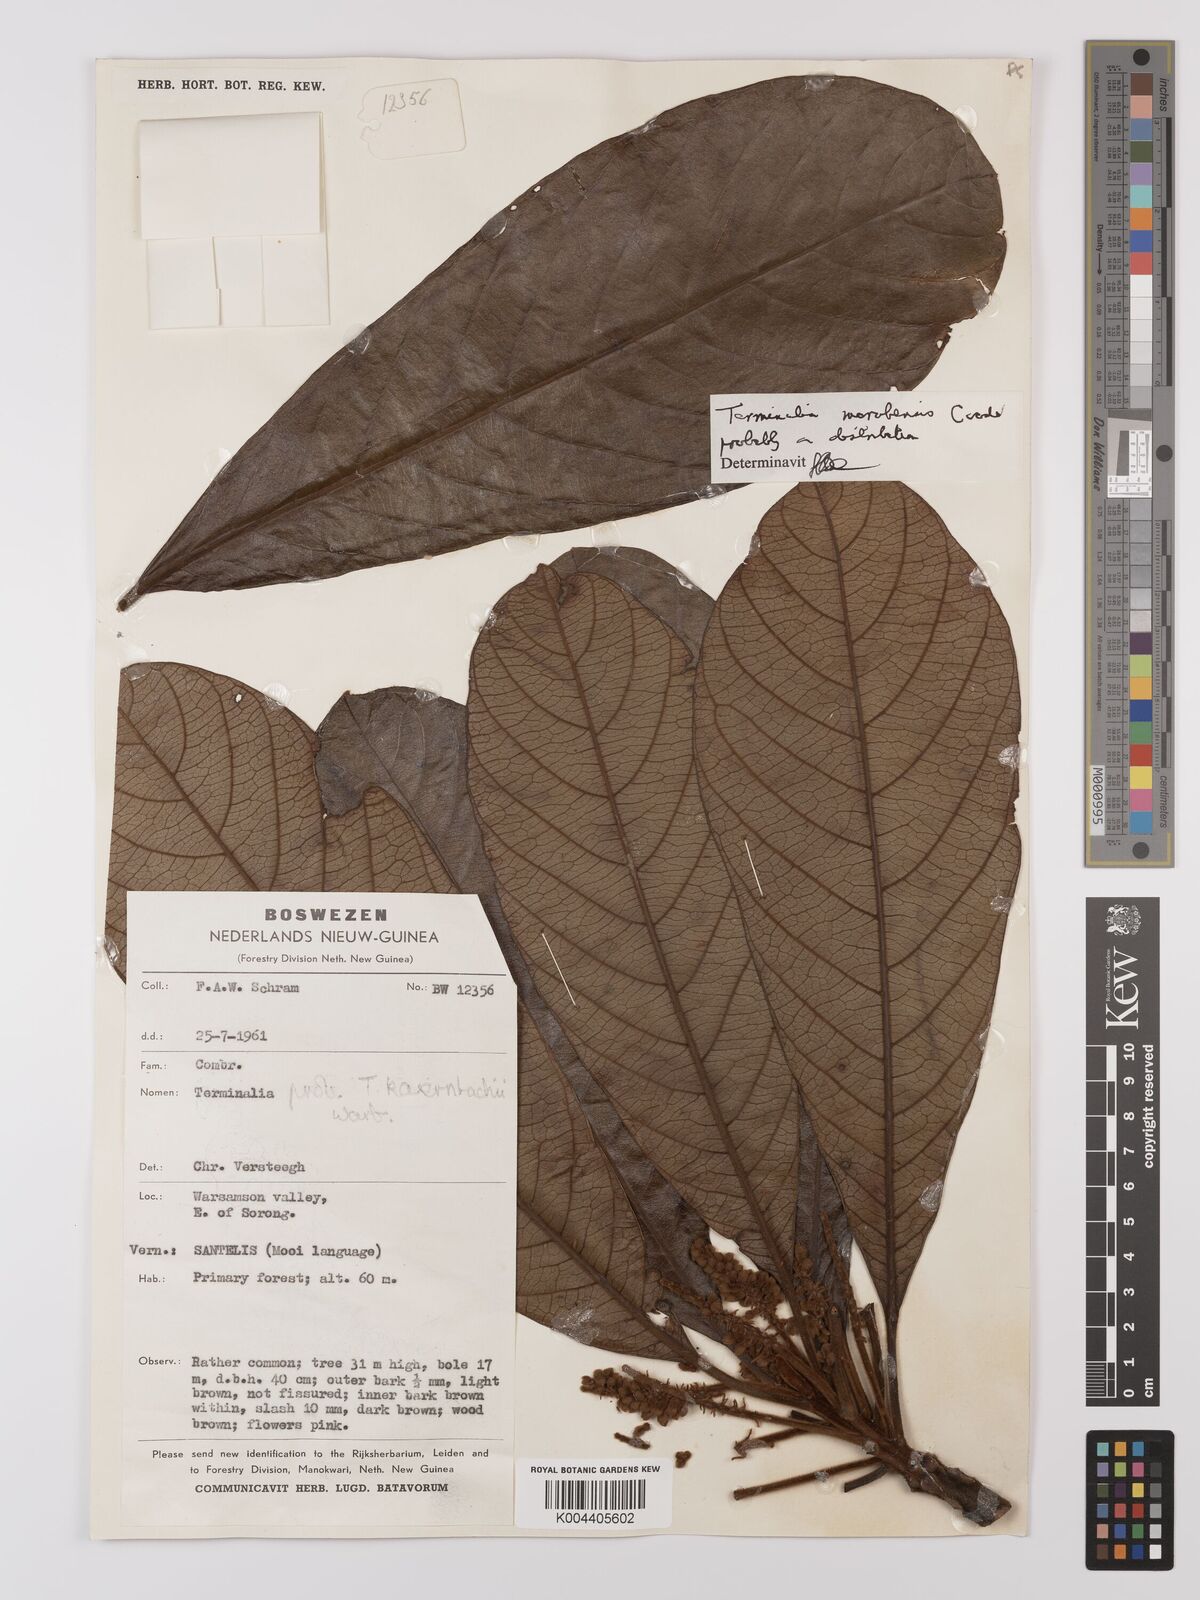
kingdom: Plantae
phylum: Tracheophyta
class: Magnoliopsida
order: Myrtales
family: Combretaceae
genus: Terminalia
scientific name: Terminalia kaernbachii
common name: Okari-nut
